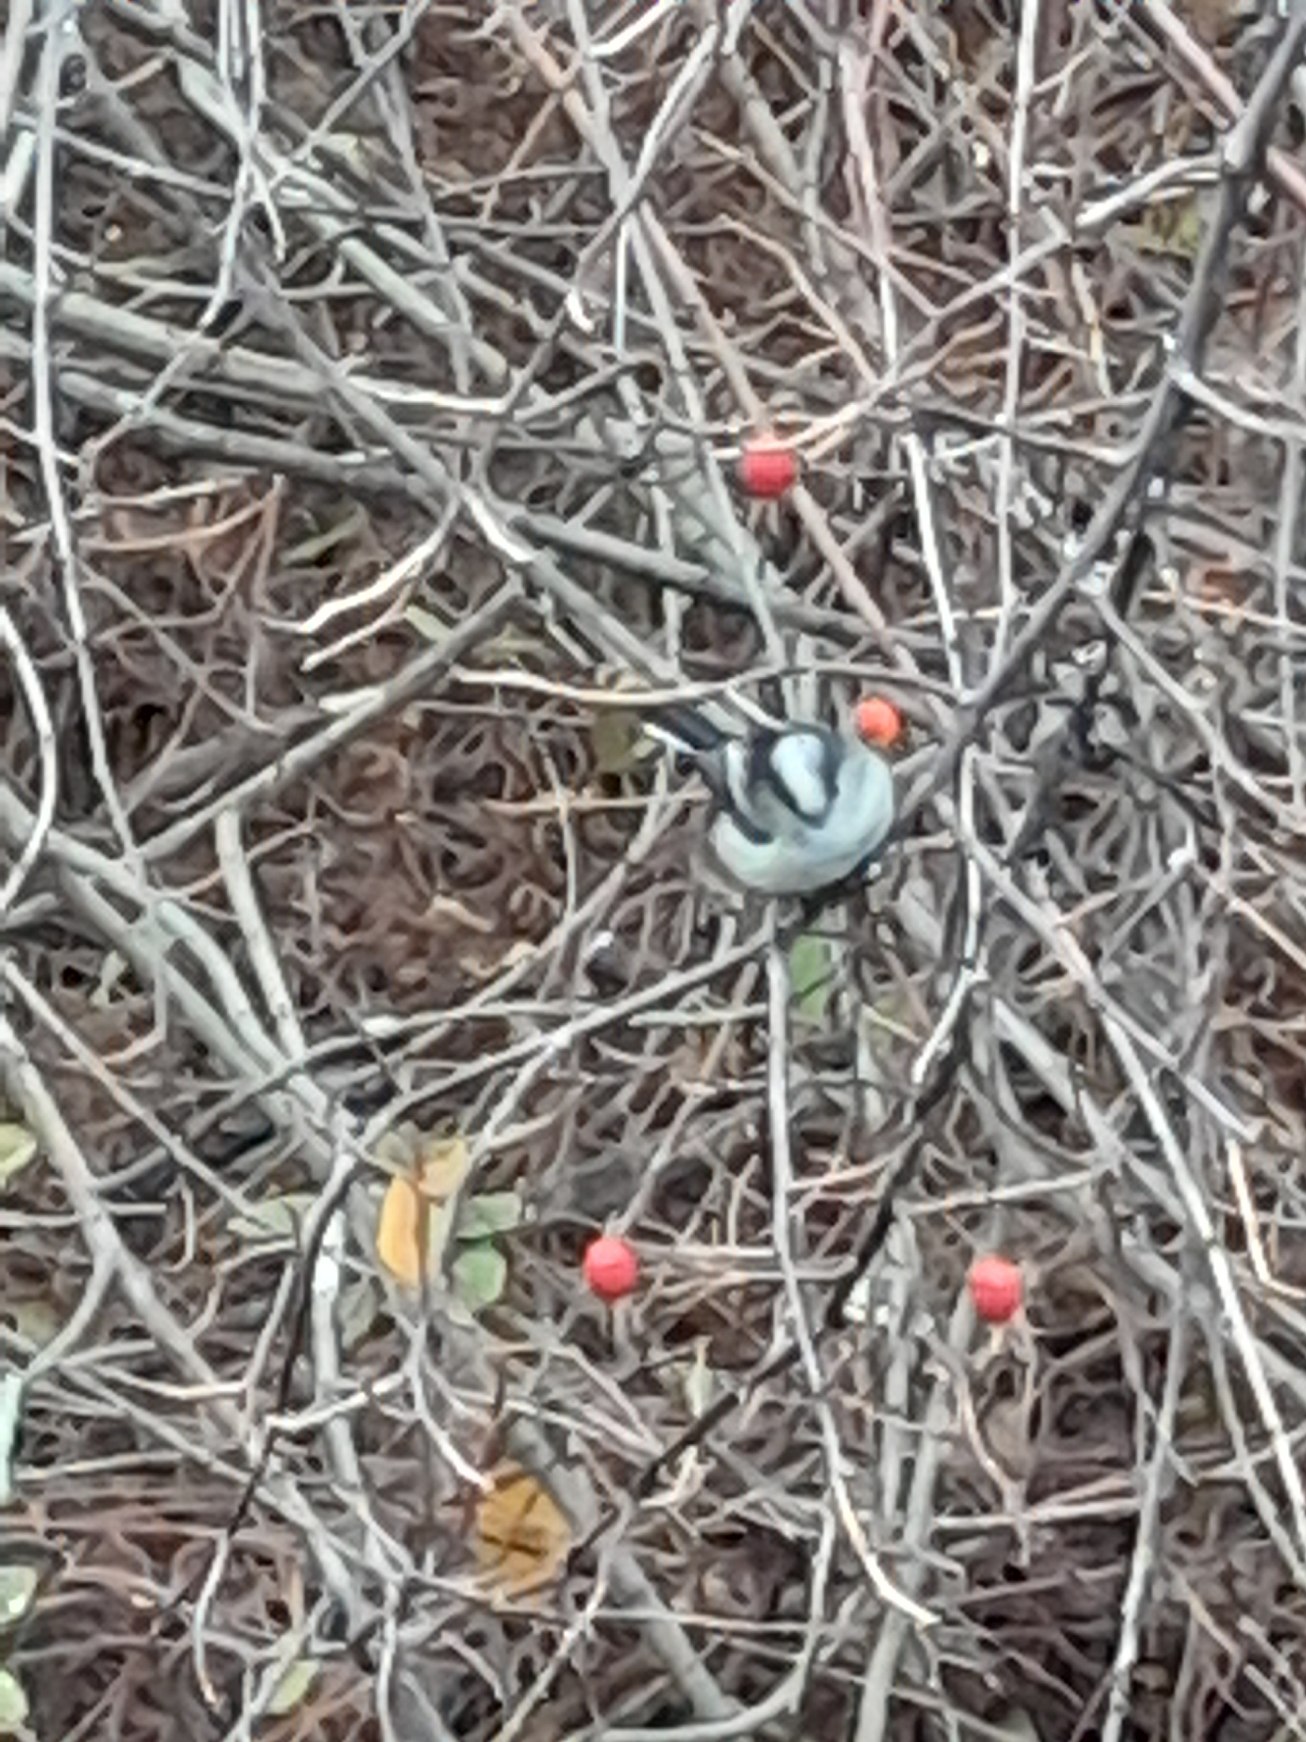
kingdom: Animalia
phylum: Chordata
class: Aves
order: Passeriformes
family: Aegithalidae
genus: Aegithalos
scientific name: Aegithalos caudatus
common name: Sydlig halemejse
